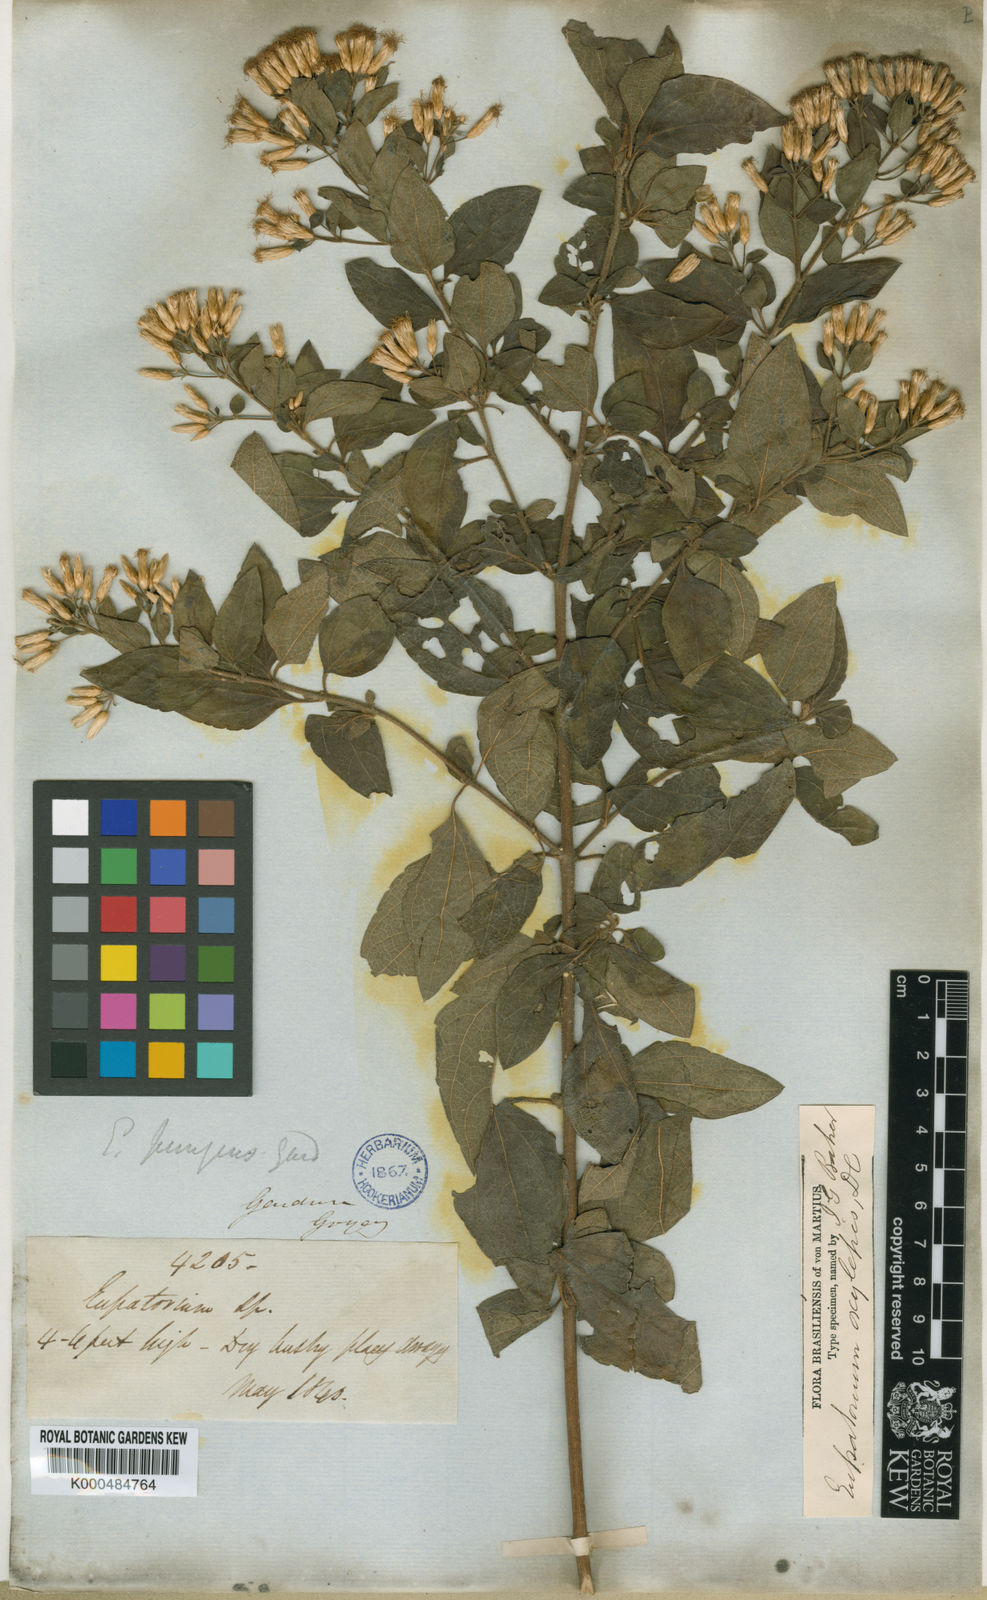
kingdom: Plantae
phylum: Tracheophyta
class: Magnoliopsida
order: Asterales
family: Asteraceae
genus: Chromolaena
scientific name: Chromolaena oxylepis
